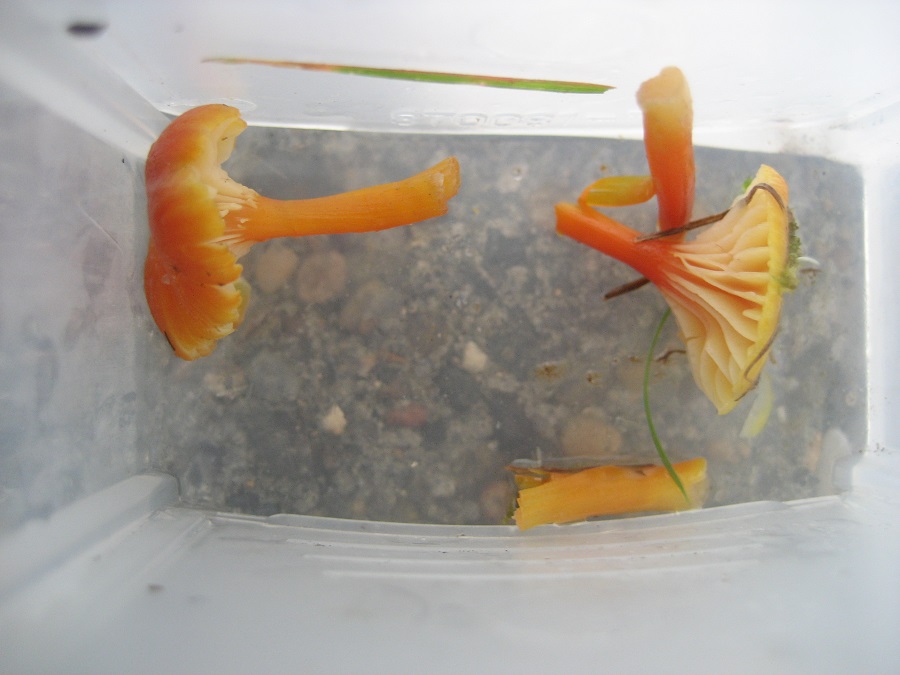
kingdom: Fungi
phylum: Basidiomycota
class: Agaricomycetes
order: Agaricales
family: Hygrophoraceae
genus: Hygrocybe
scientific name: Hygrocybe insipida
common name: liden vokshat
